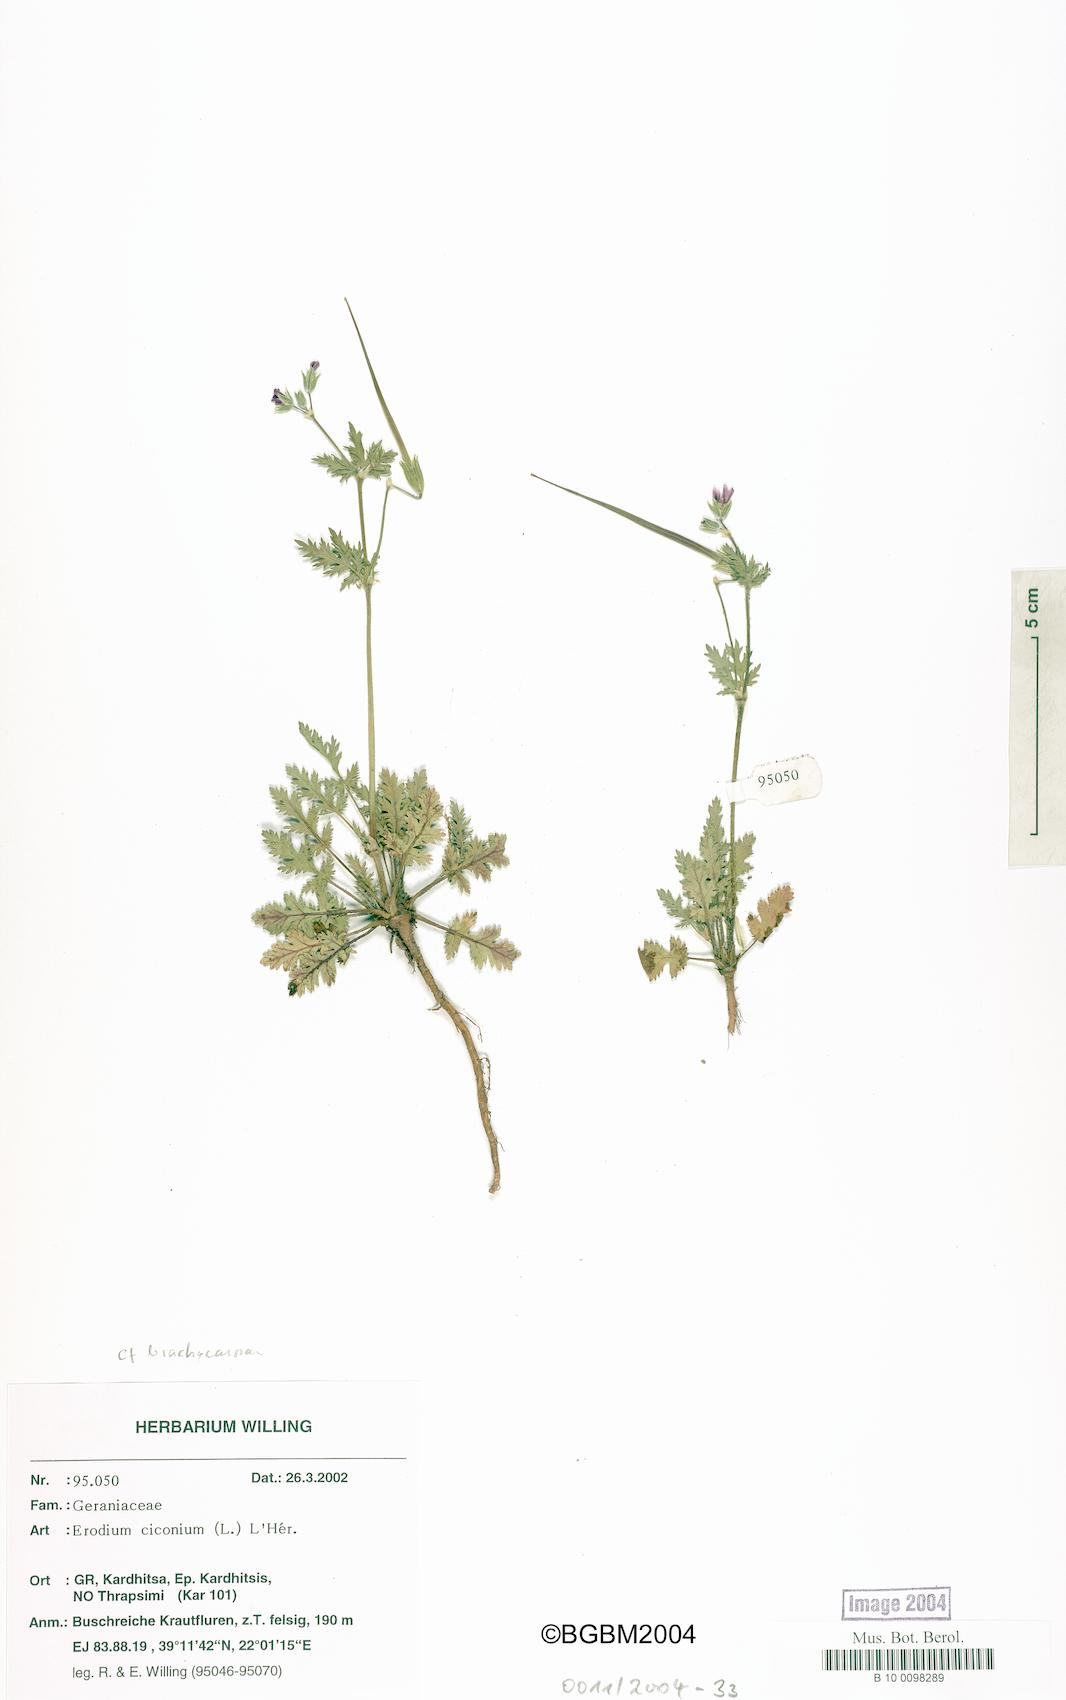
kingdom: Plantae
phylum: Tracheophyta
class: Magnoliopsida
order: Geraniales
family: Geraniaceae
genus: Erodium
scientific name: Erodium ciconium
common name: Common stork's bill
